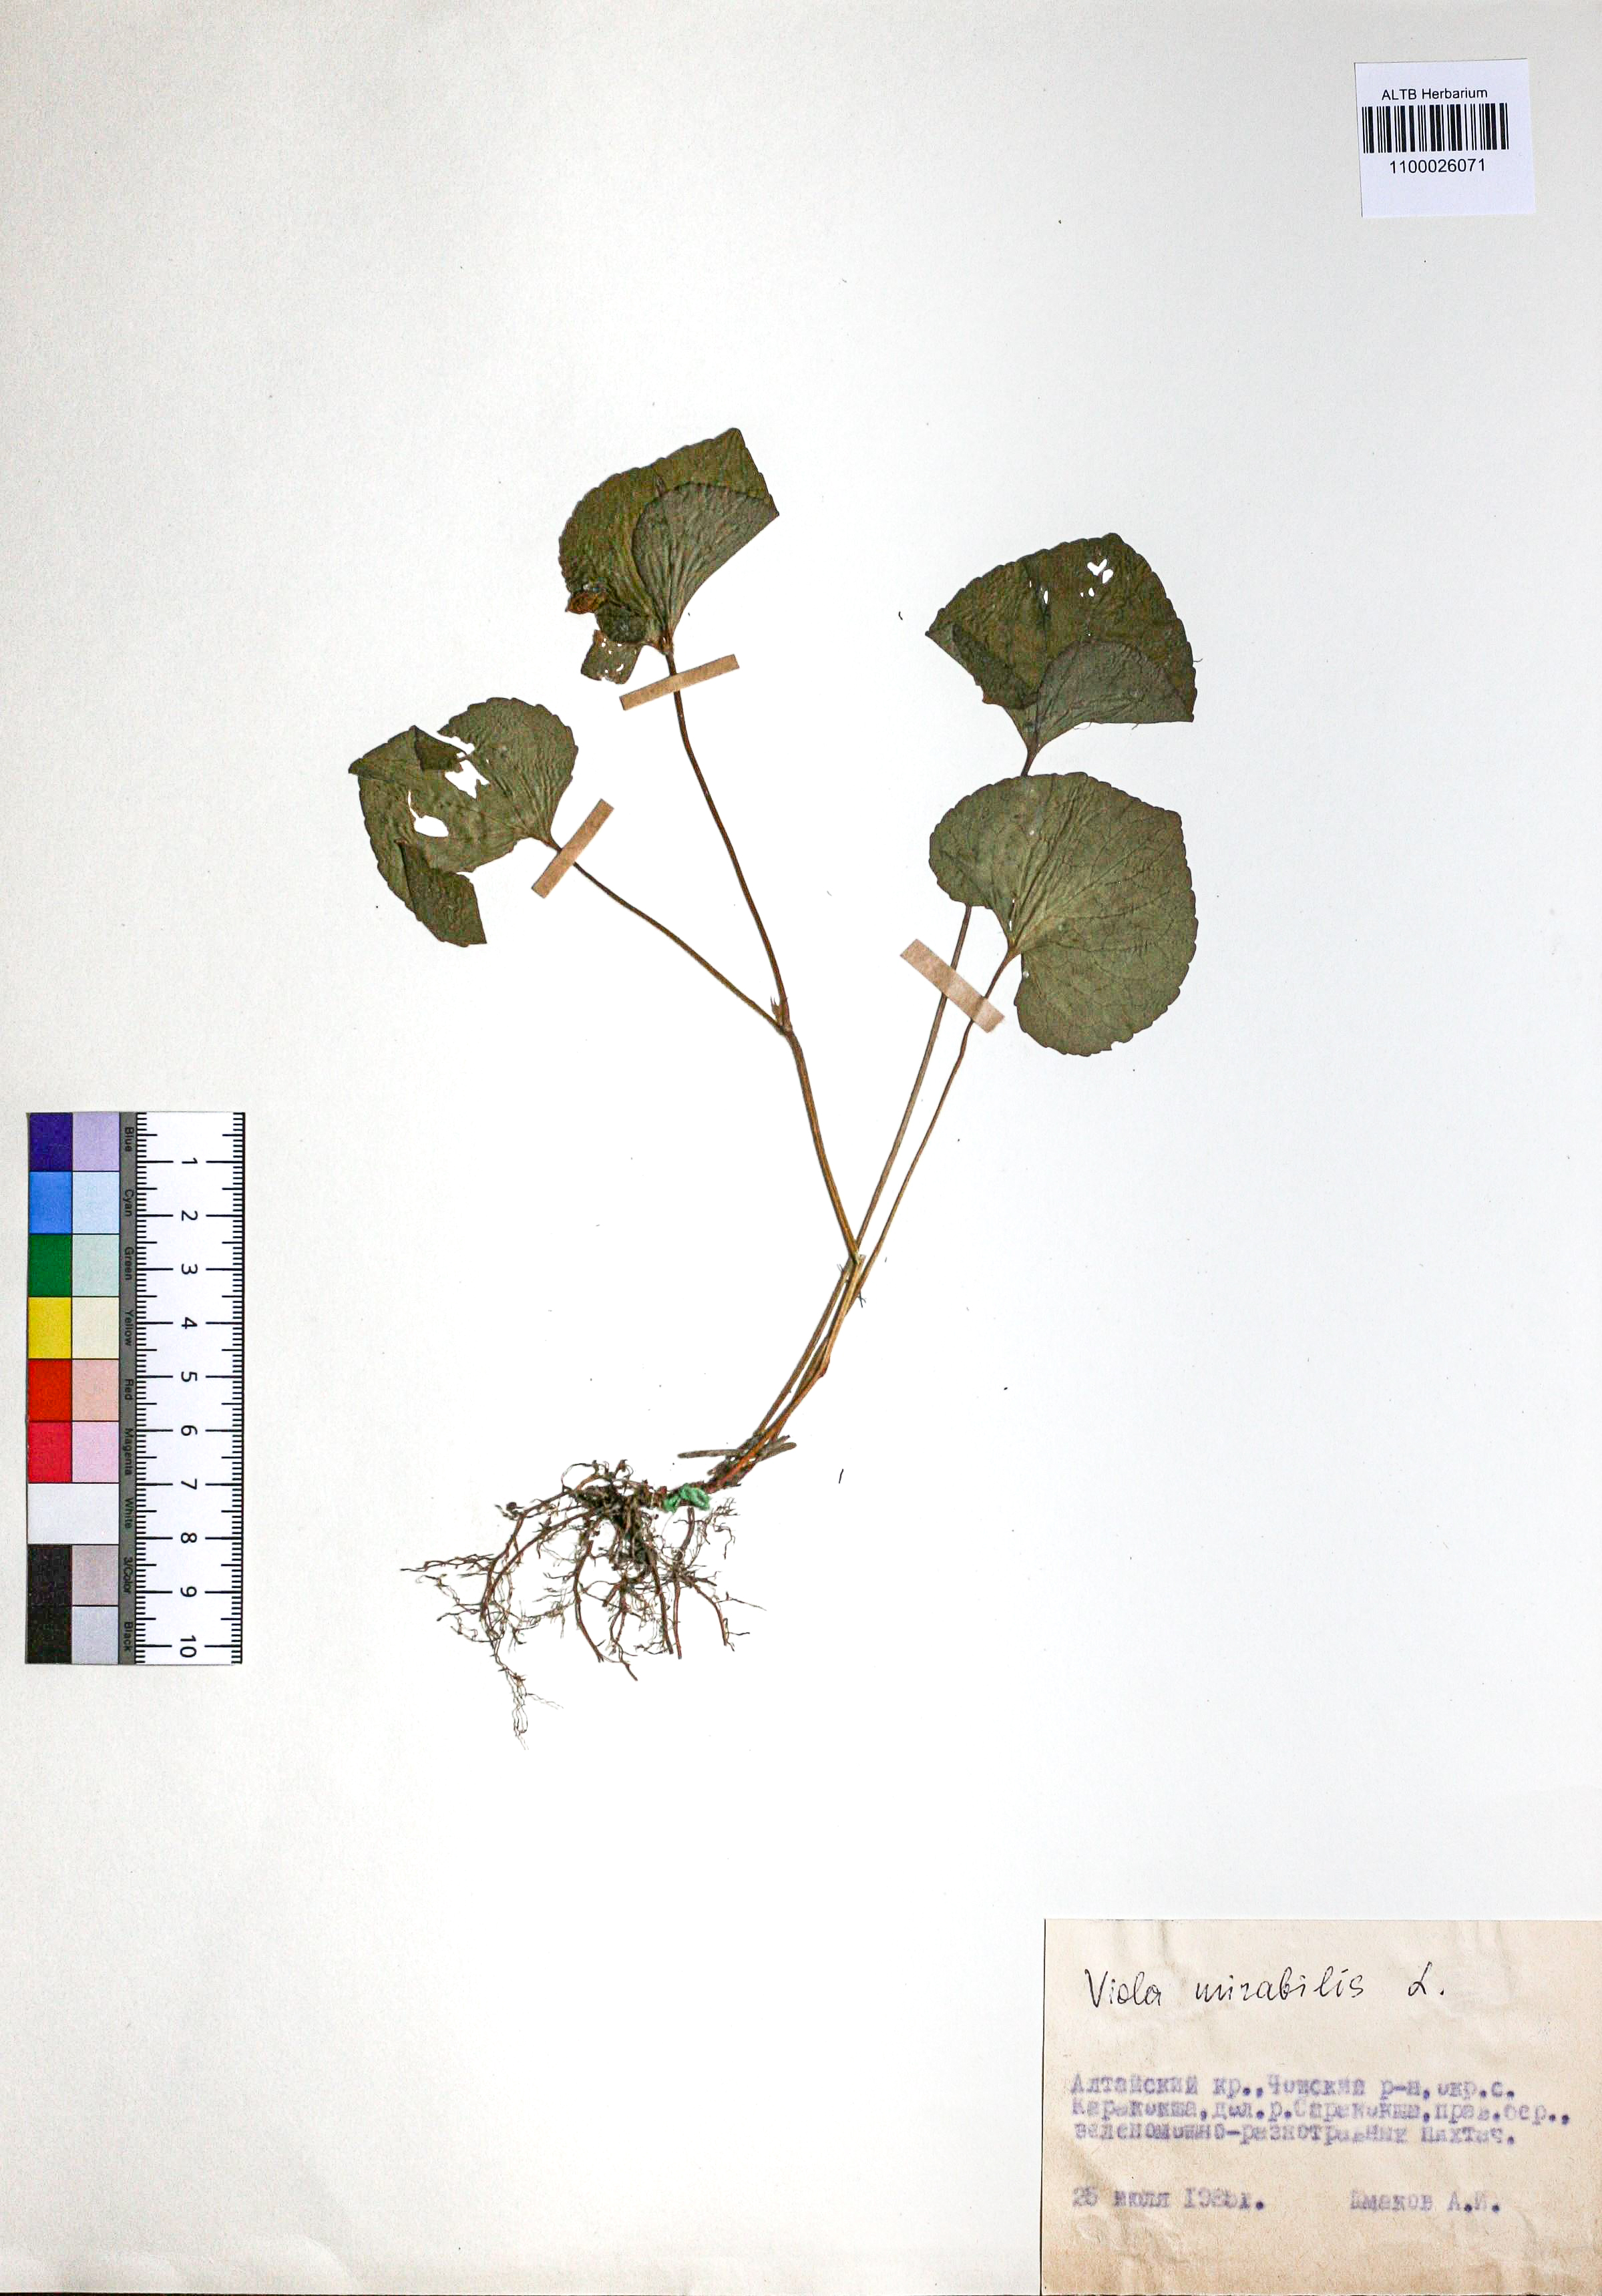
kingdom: Plantae
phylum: Tracheophyta
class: Magnoliopsida
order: Malpighiales
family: Violaceae
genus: Viola
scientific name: Viola mirabilis
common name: Wonder violet
